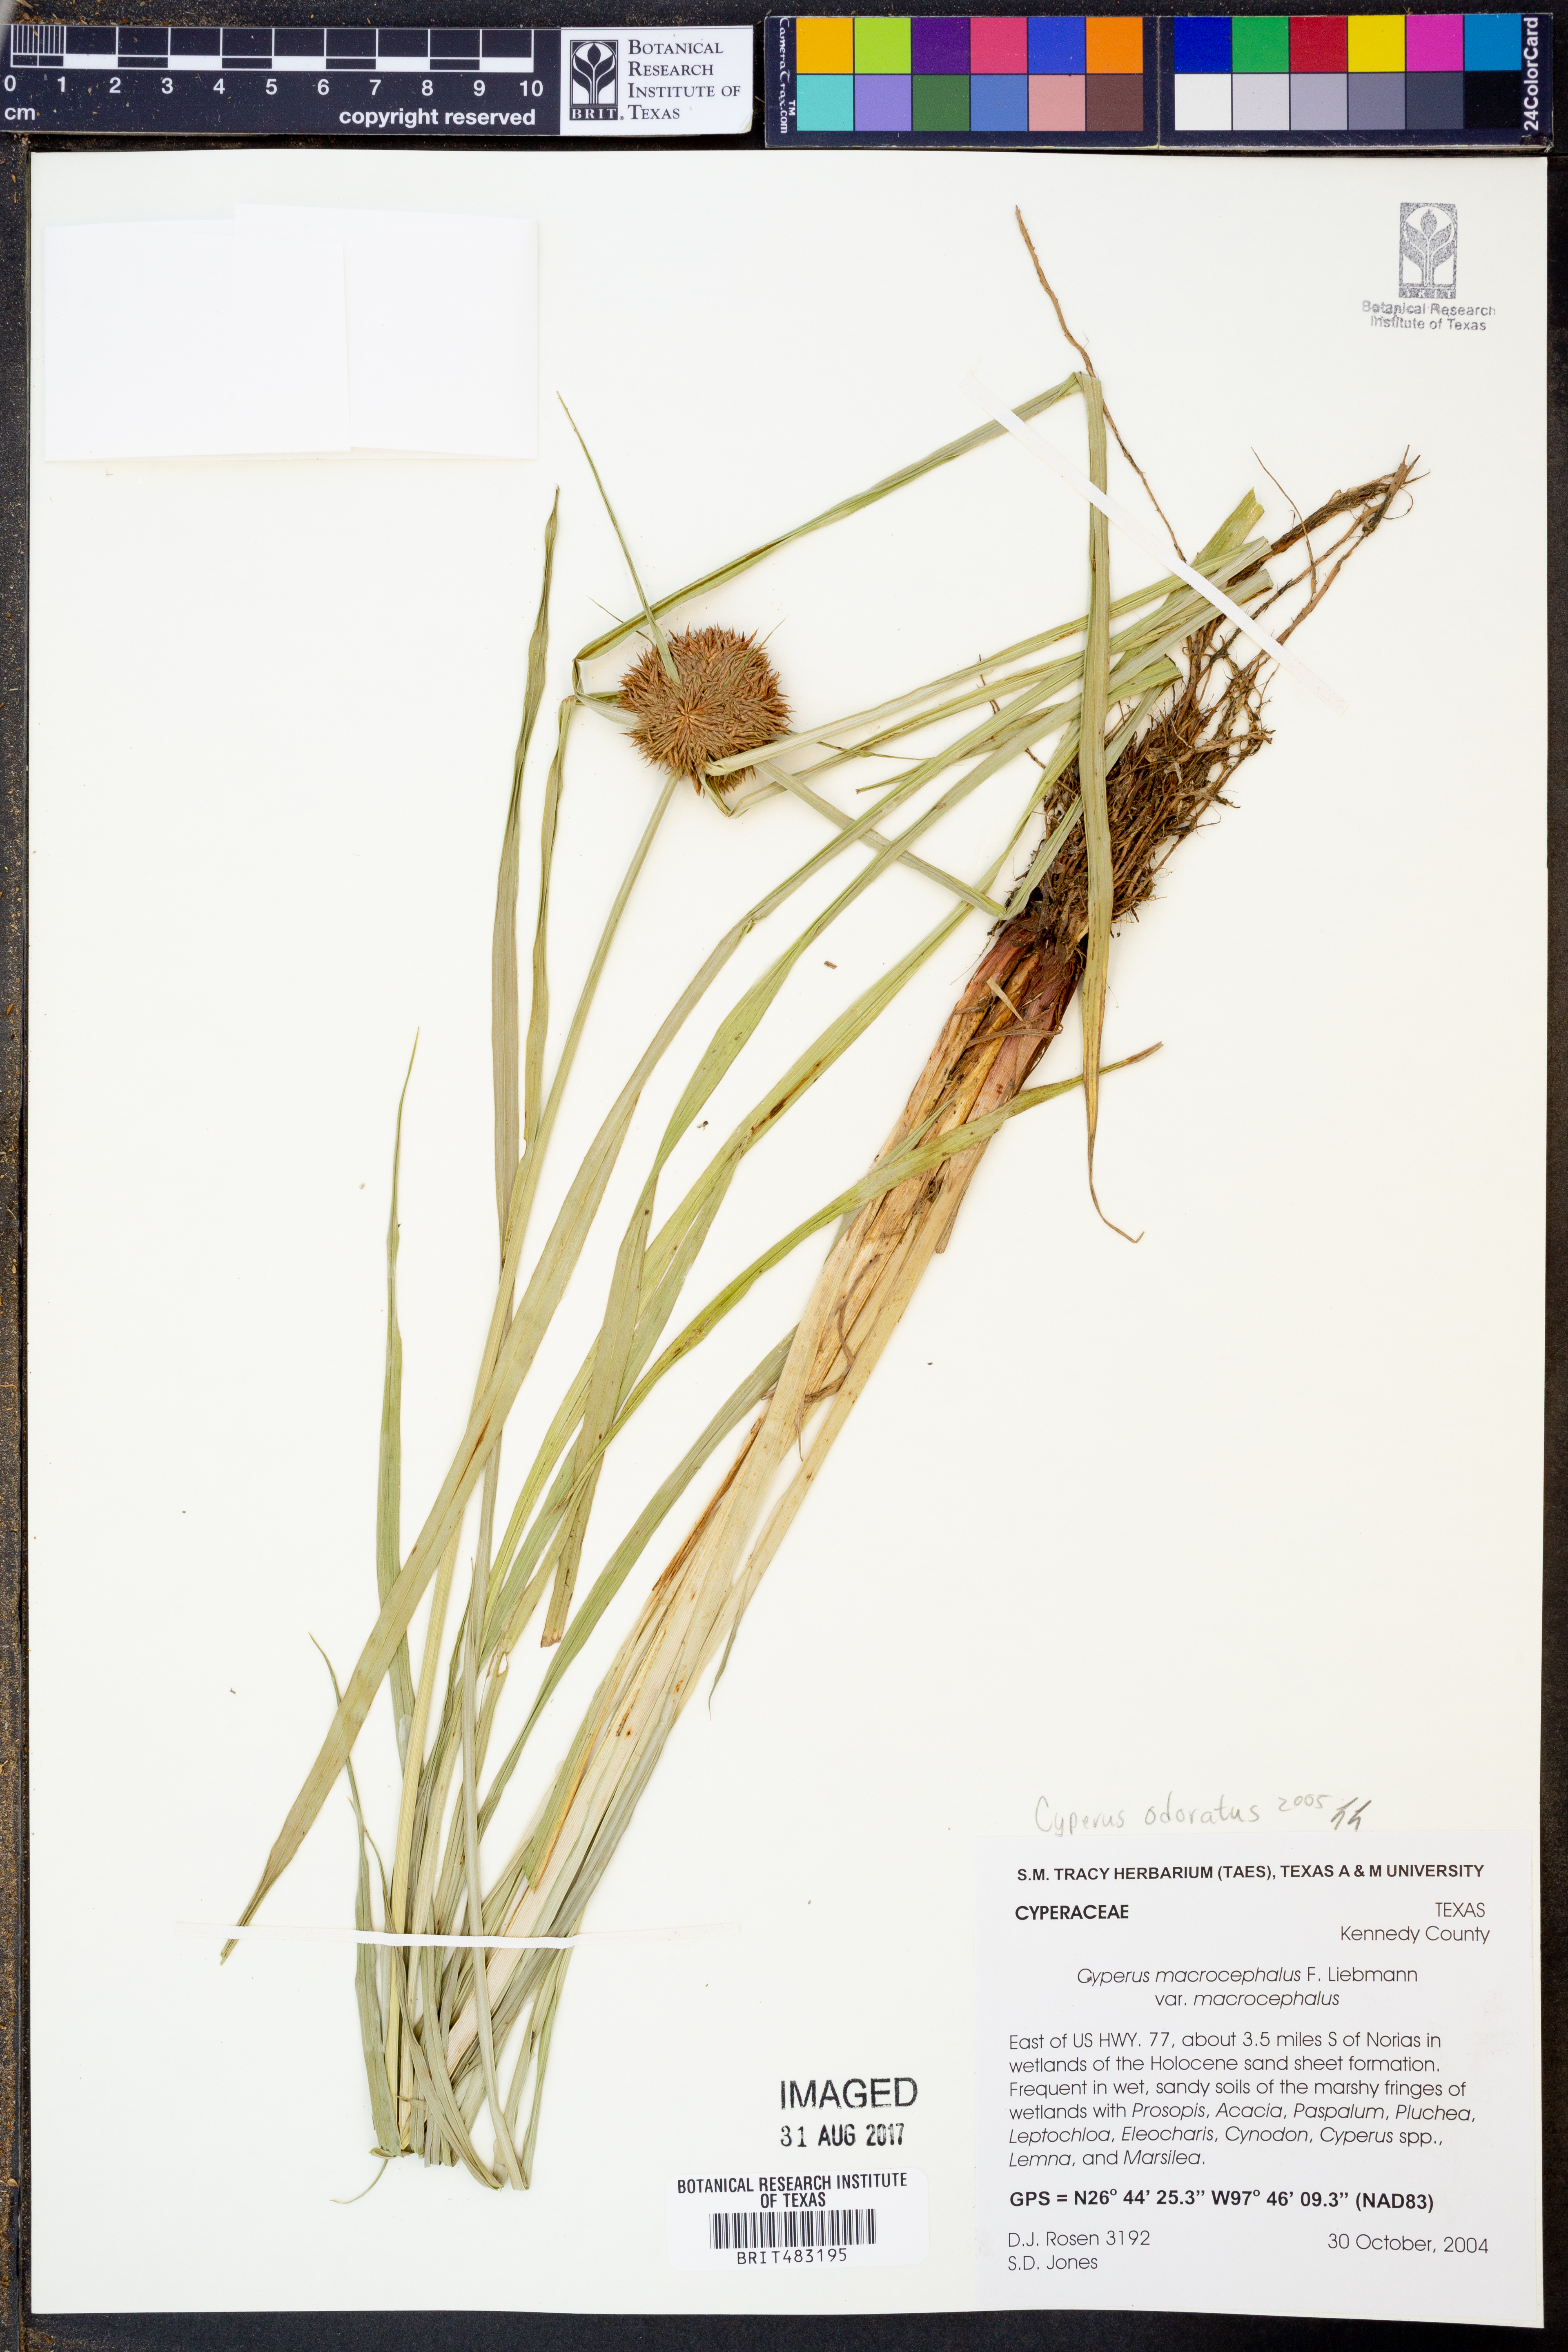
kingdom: Plantae
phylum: Tracheophyta
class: Liliopsida
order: Poales
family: Cyperaceae
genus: Cyperus
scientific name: Cyperus odoratus
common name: Fragrant flatsedge
